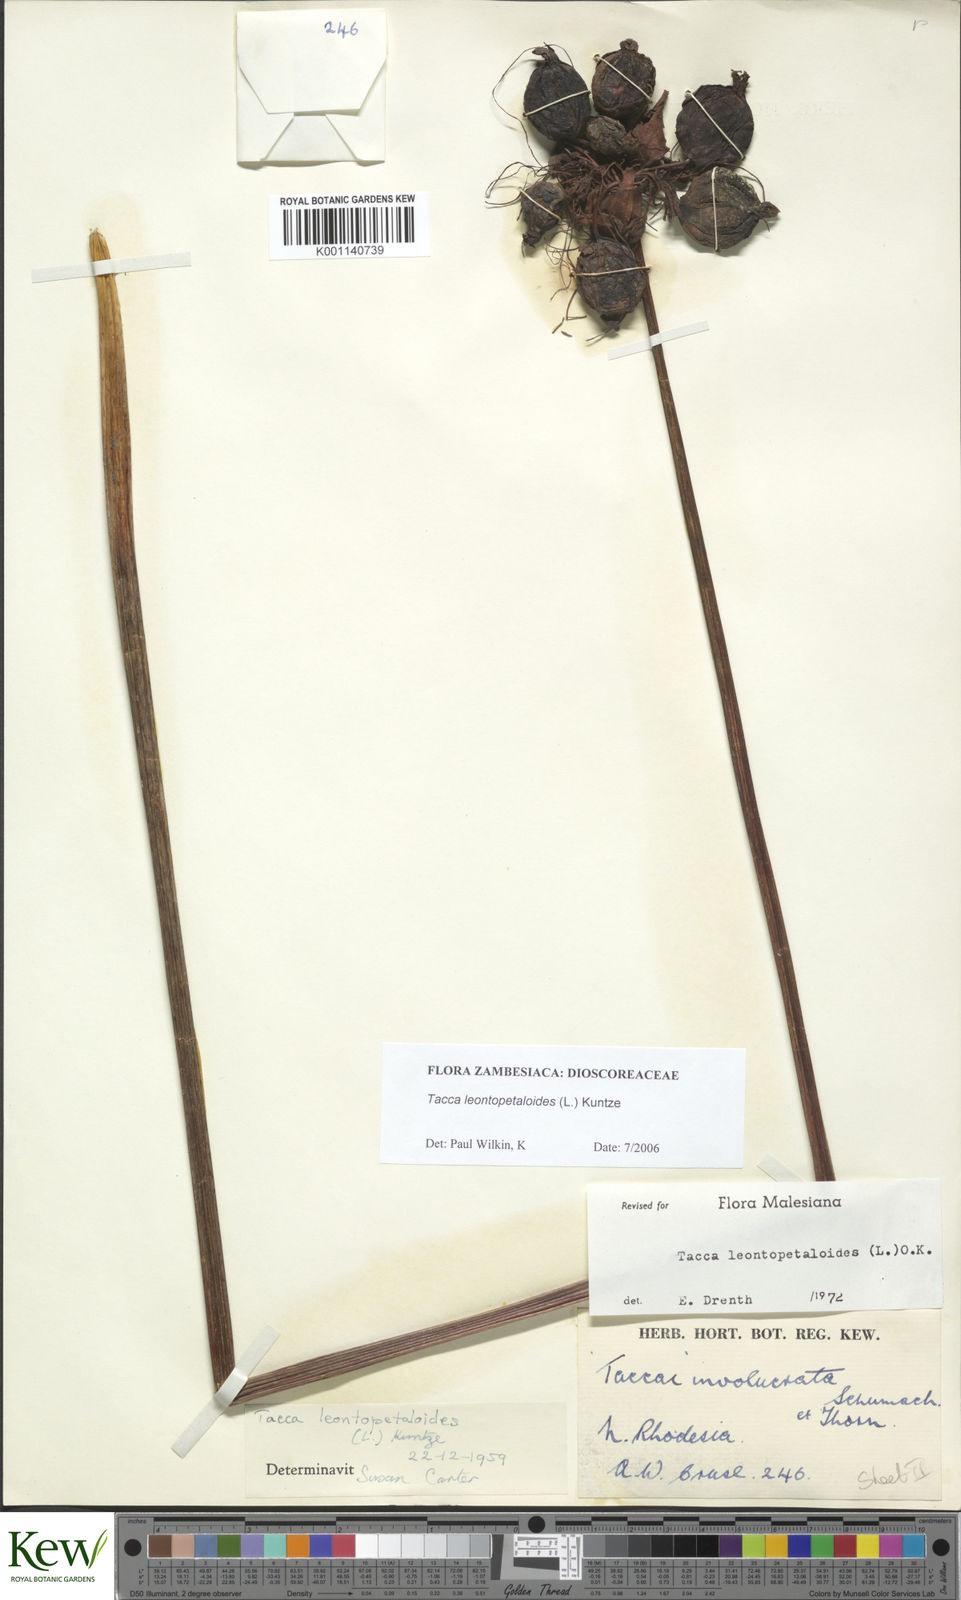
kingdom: Plantae
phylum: Tracheophyta
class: Liliopsida
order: Dioscoreales
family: Dioscoreaceae
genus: Tacca
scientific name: Tacca leontopetaloides
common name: Arrowroot
